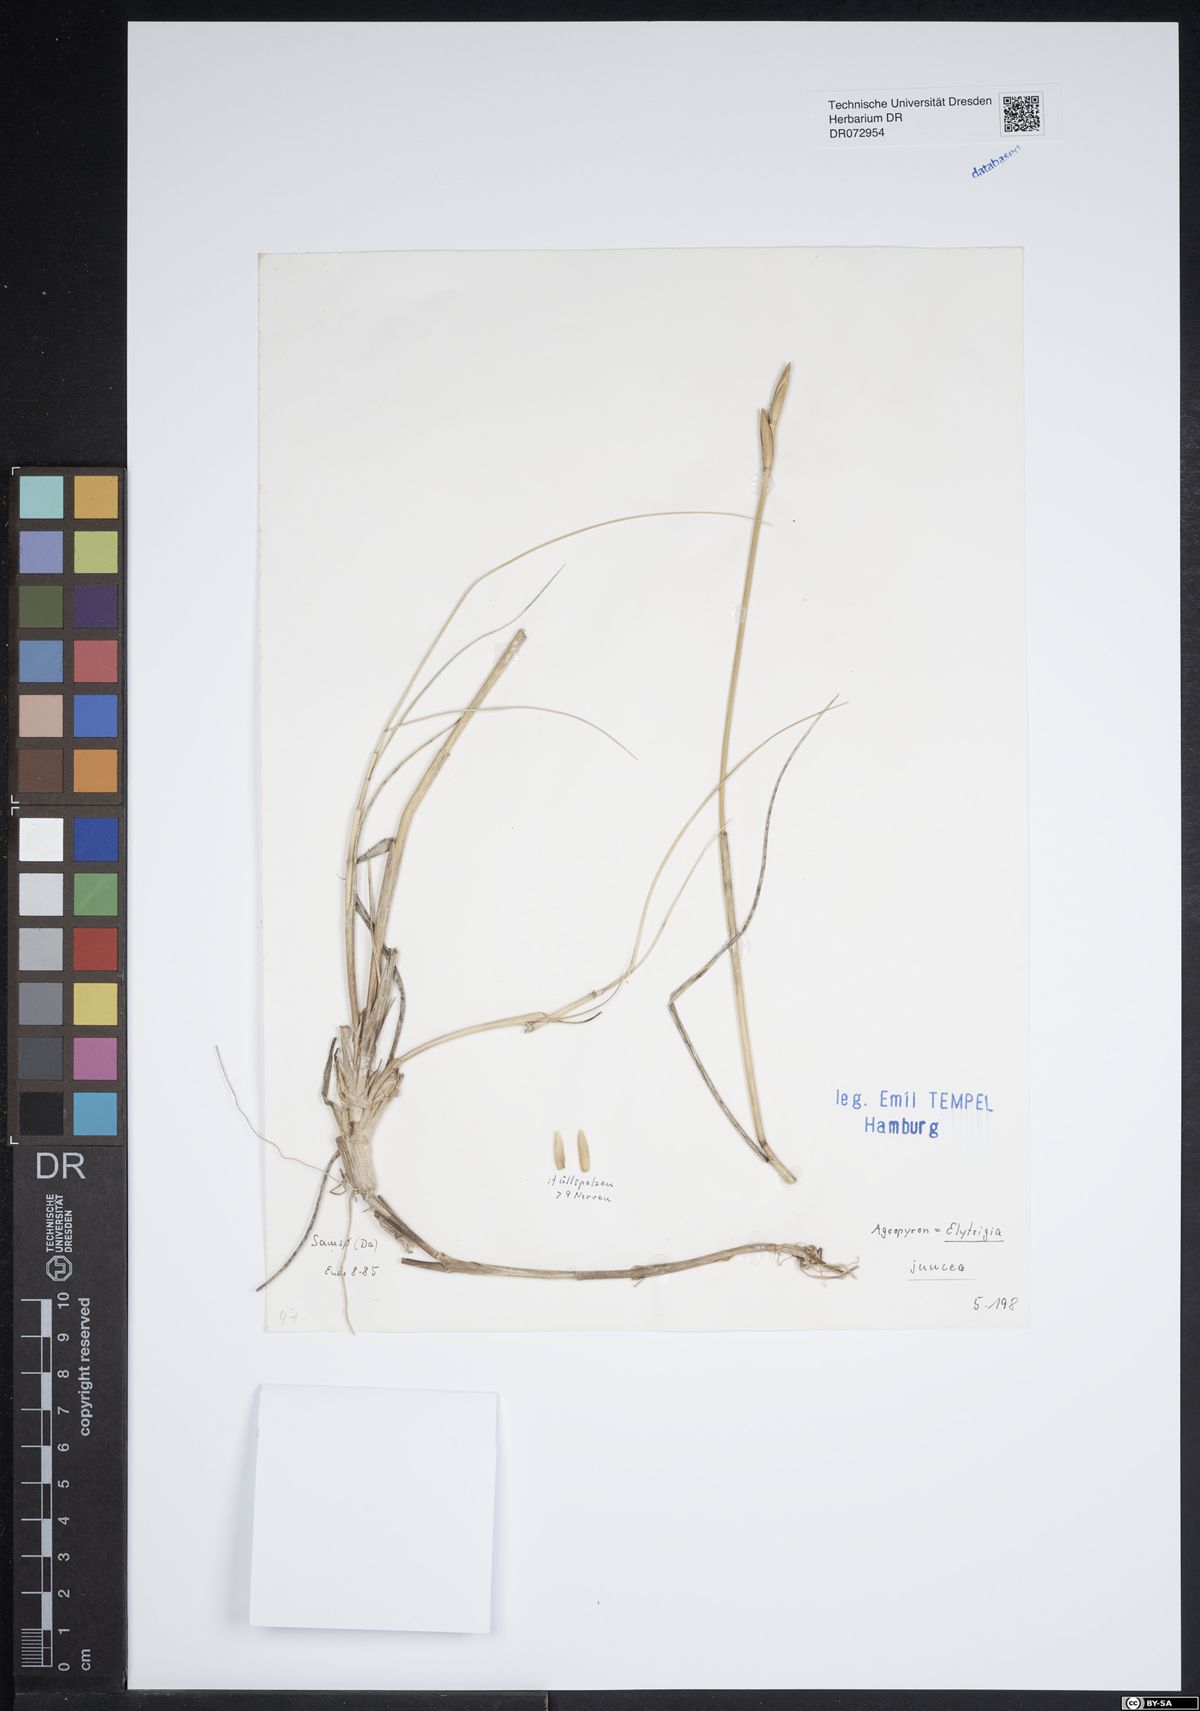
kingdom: Plantae
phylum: Tracheophyta
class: Liliopsida
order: Poales
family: Poaceae
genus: Thinopyrum
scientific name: Thinopyrum junceum
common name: Russian wheatgrass
